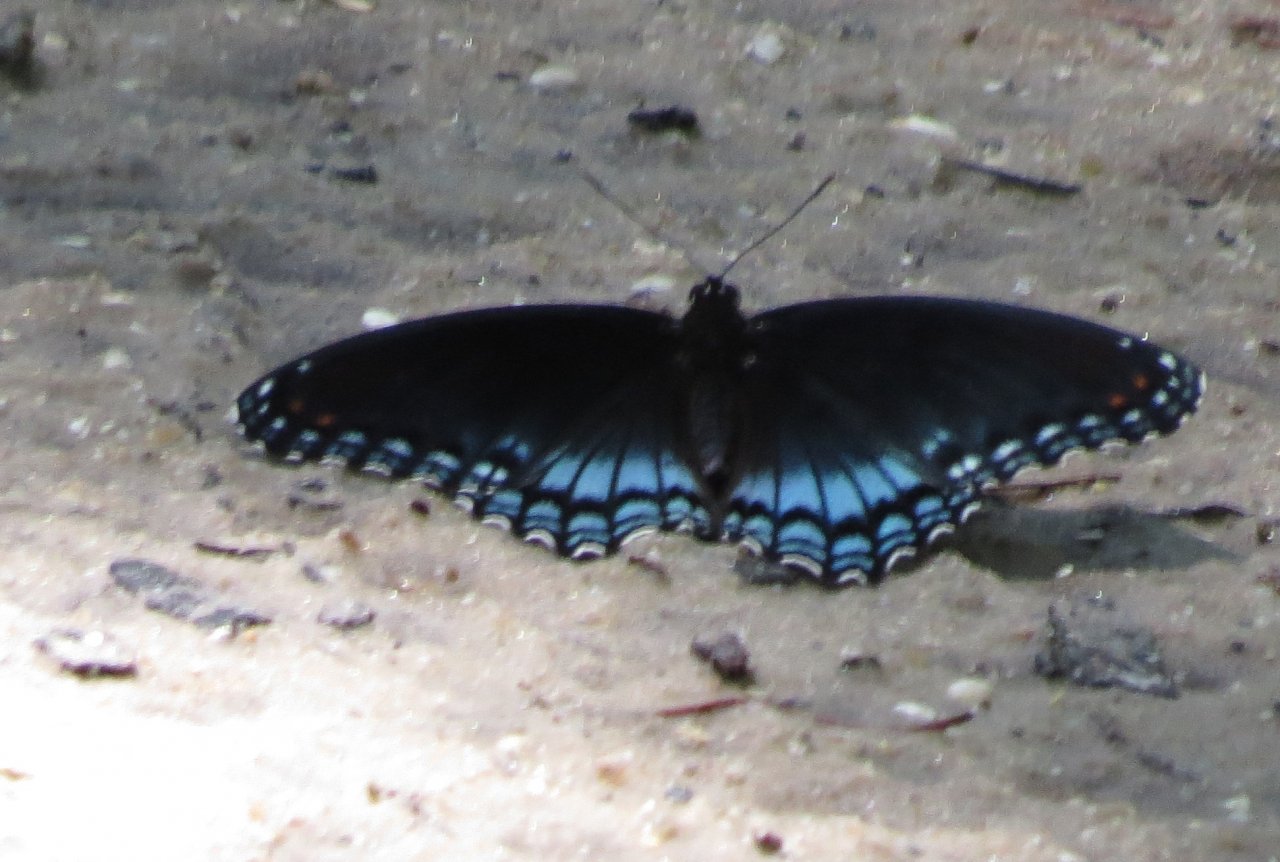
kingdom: Animalia
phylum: Arthropoda
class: Insecta
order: Lepidoptera
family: Nymphalidae
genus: Limenitis
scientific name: Limenitis astyanax
